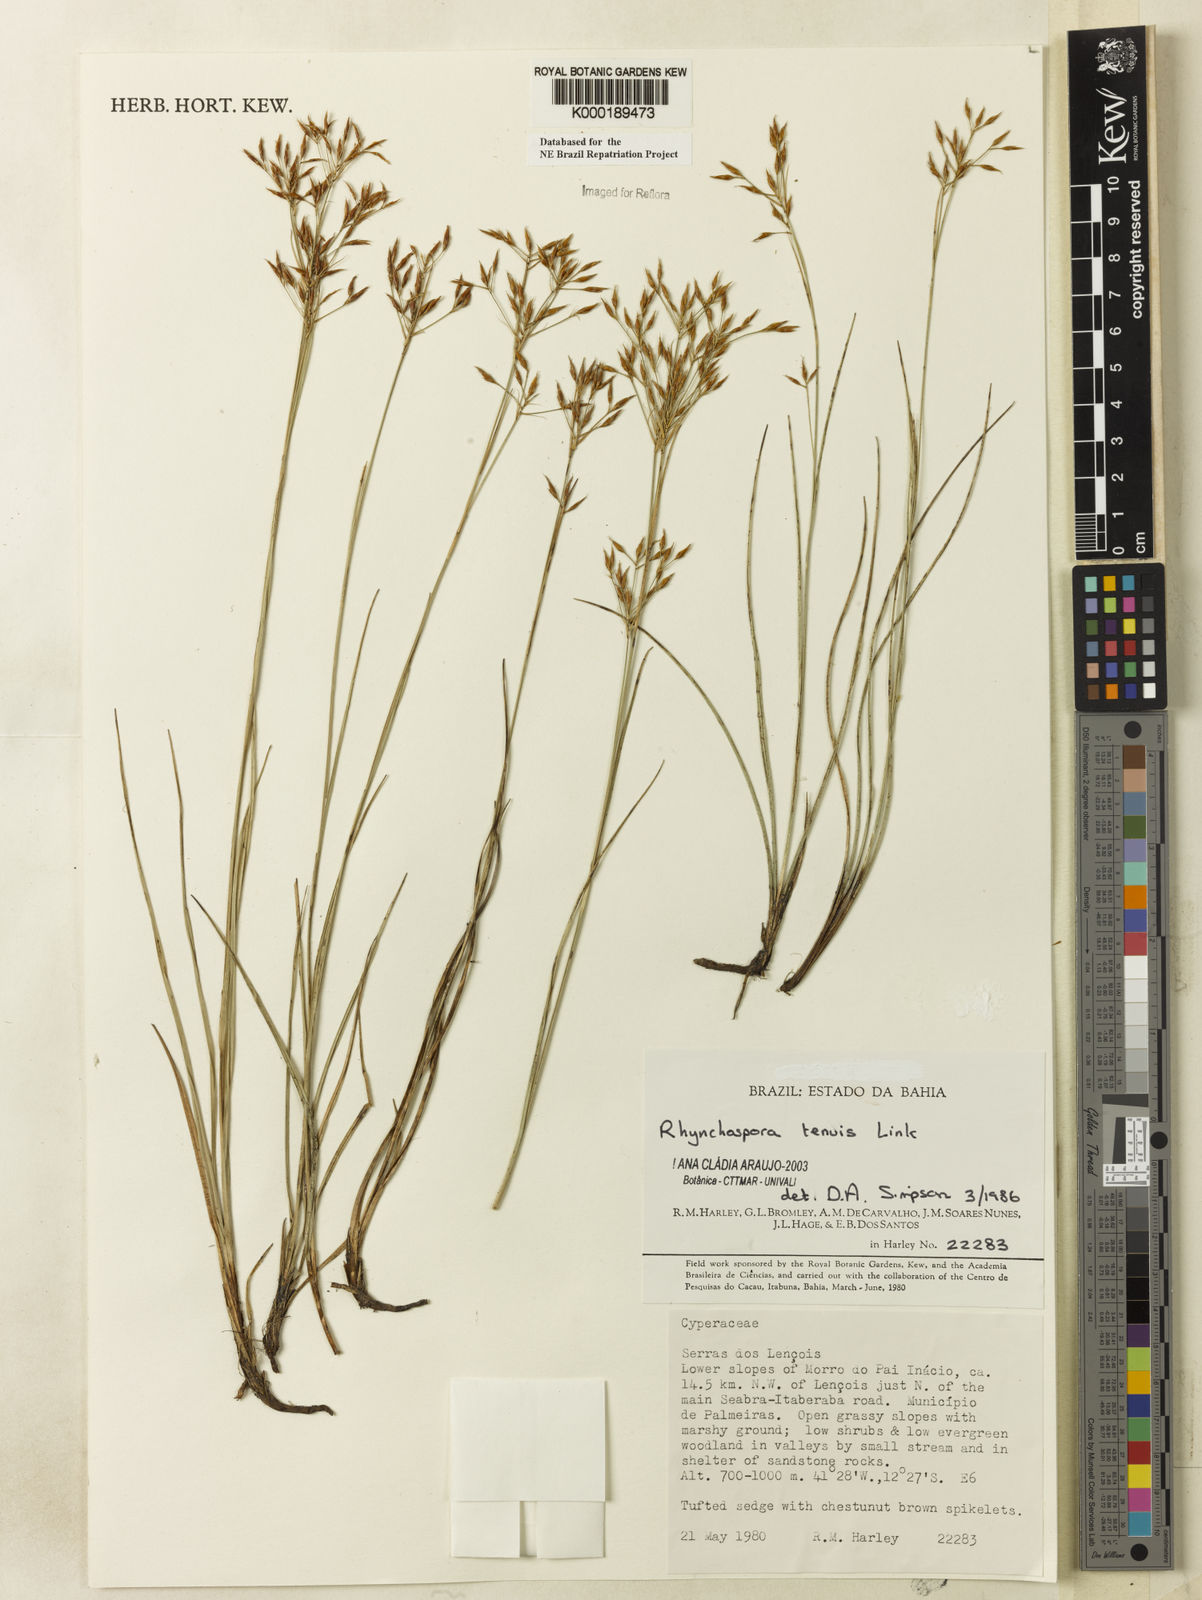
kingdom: Plantae
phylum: Tracheophyta
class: Liliopsida
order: Poales
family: Cyperaceae
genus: Rhynchospora
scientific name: Rhynchospora tenuis
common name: Quill beaksedge
